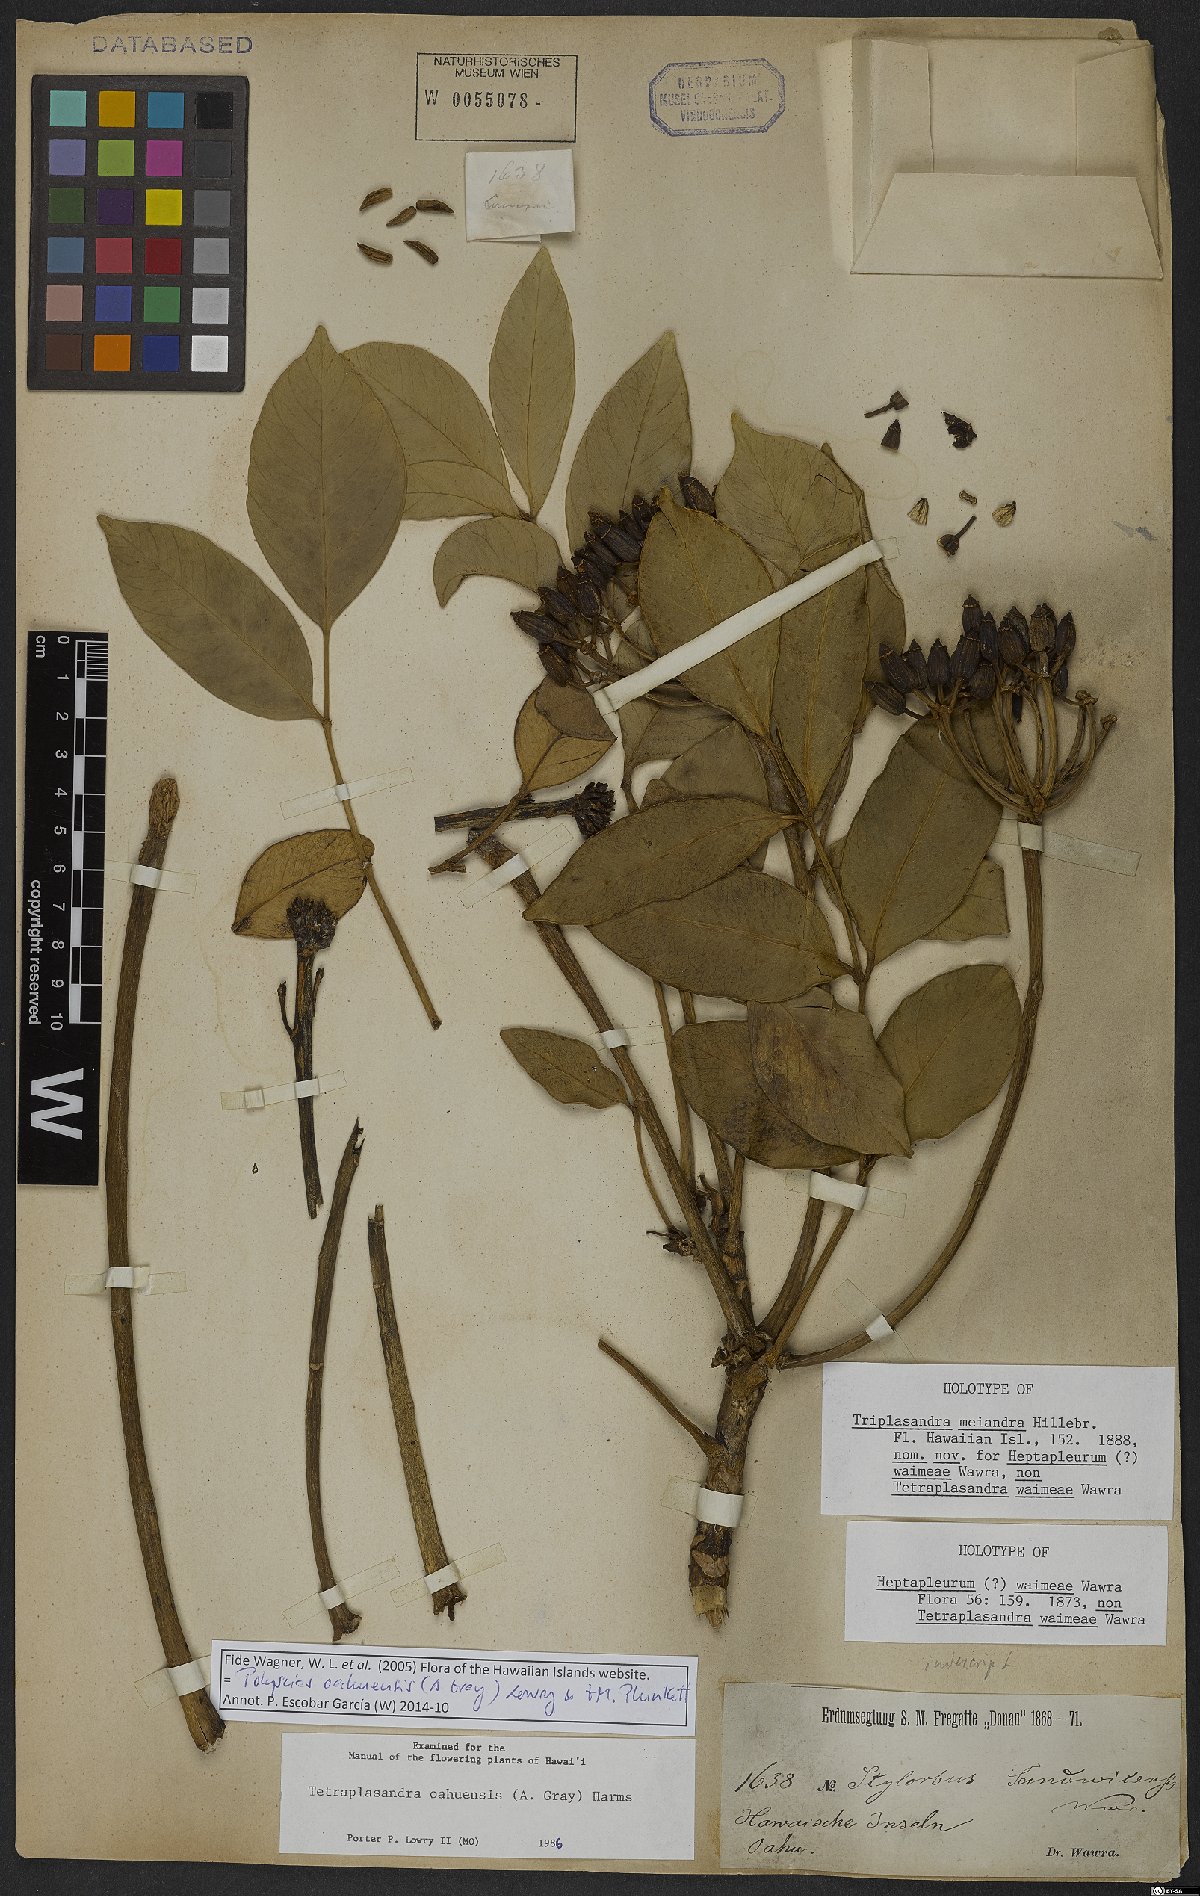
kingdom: Plantae
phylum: Tracheophyta
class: Magnoliopsida
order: Apiales
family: Araliaceae
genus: Polyscias
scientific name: Polyscias oahuensis
